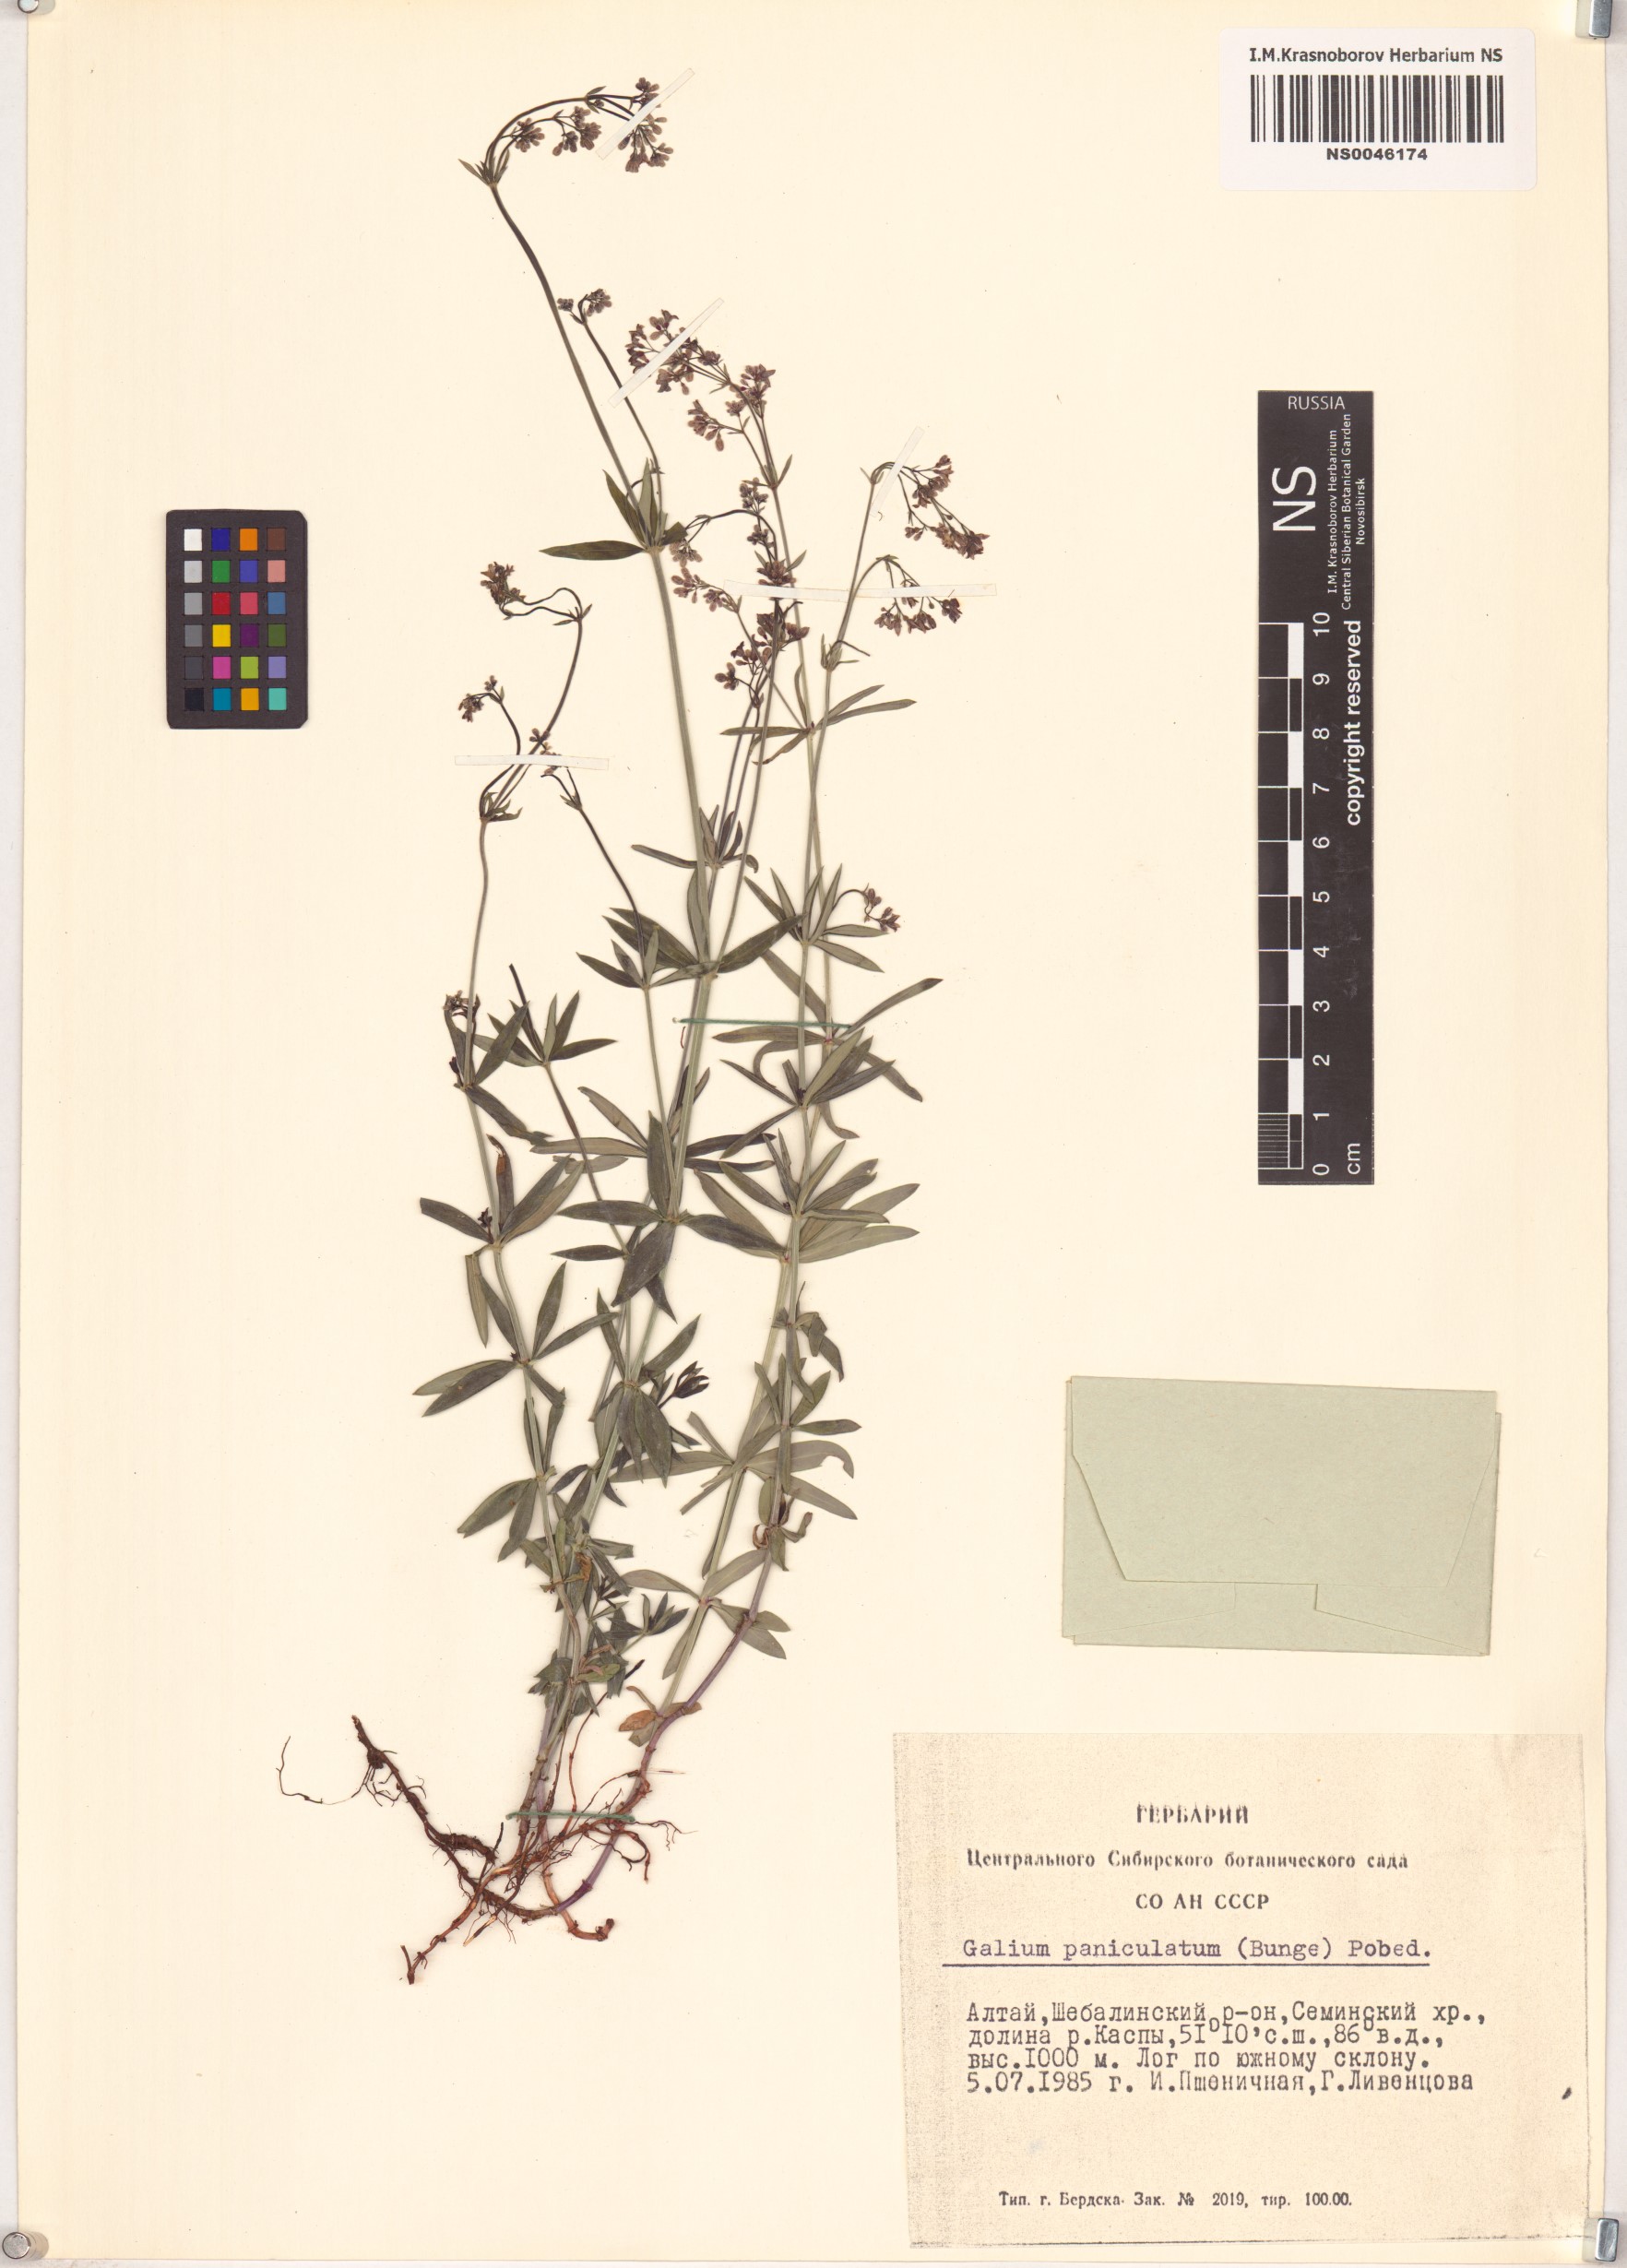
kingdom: Plantae
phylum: Tracheophyta
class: Magnoliopsida
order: Gentianales
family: Rubiaceae
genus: Galium
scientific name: Galium paniculatum
